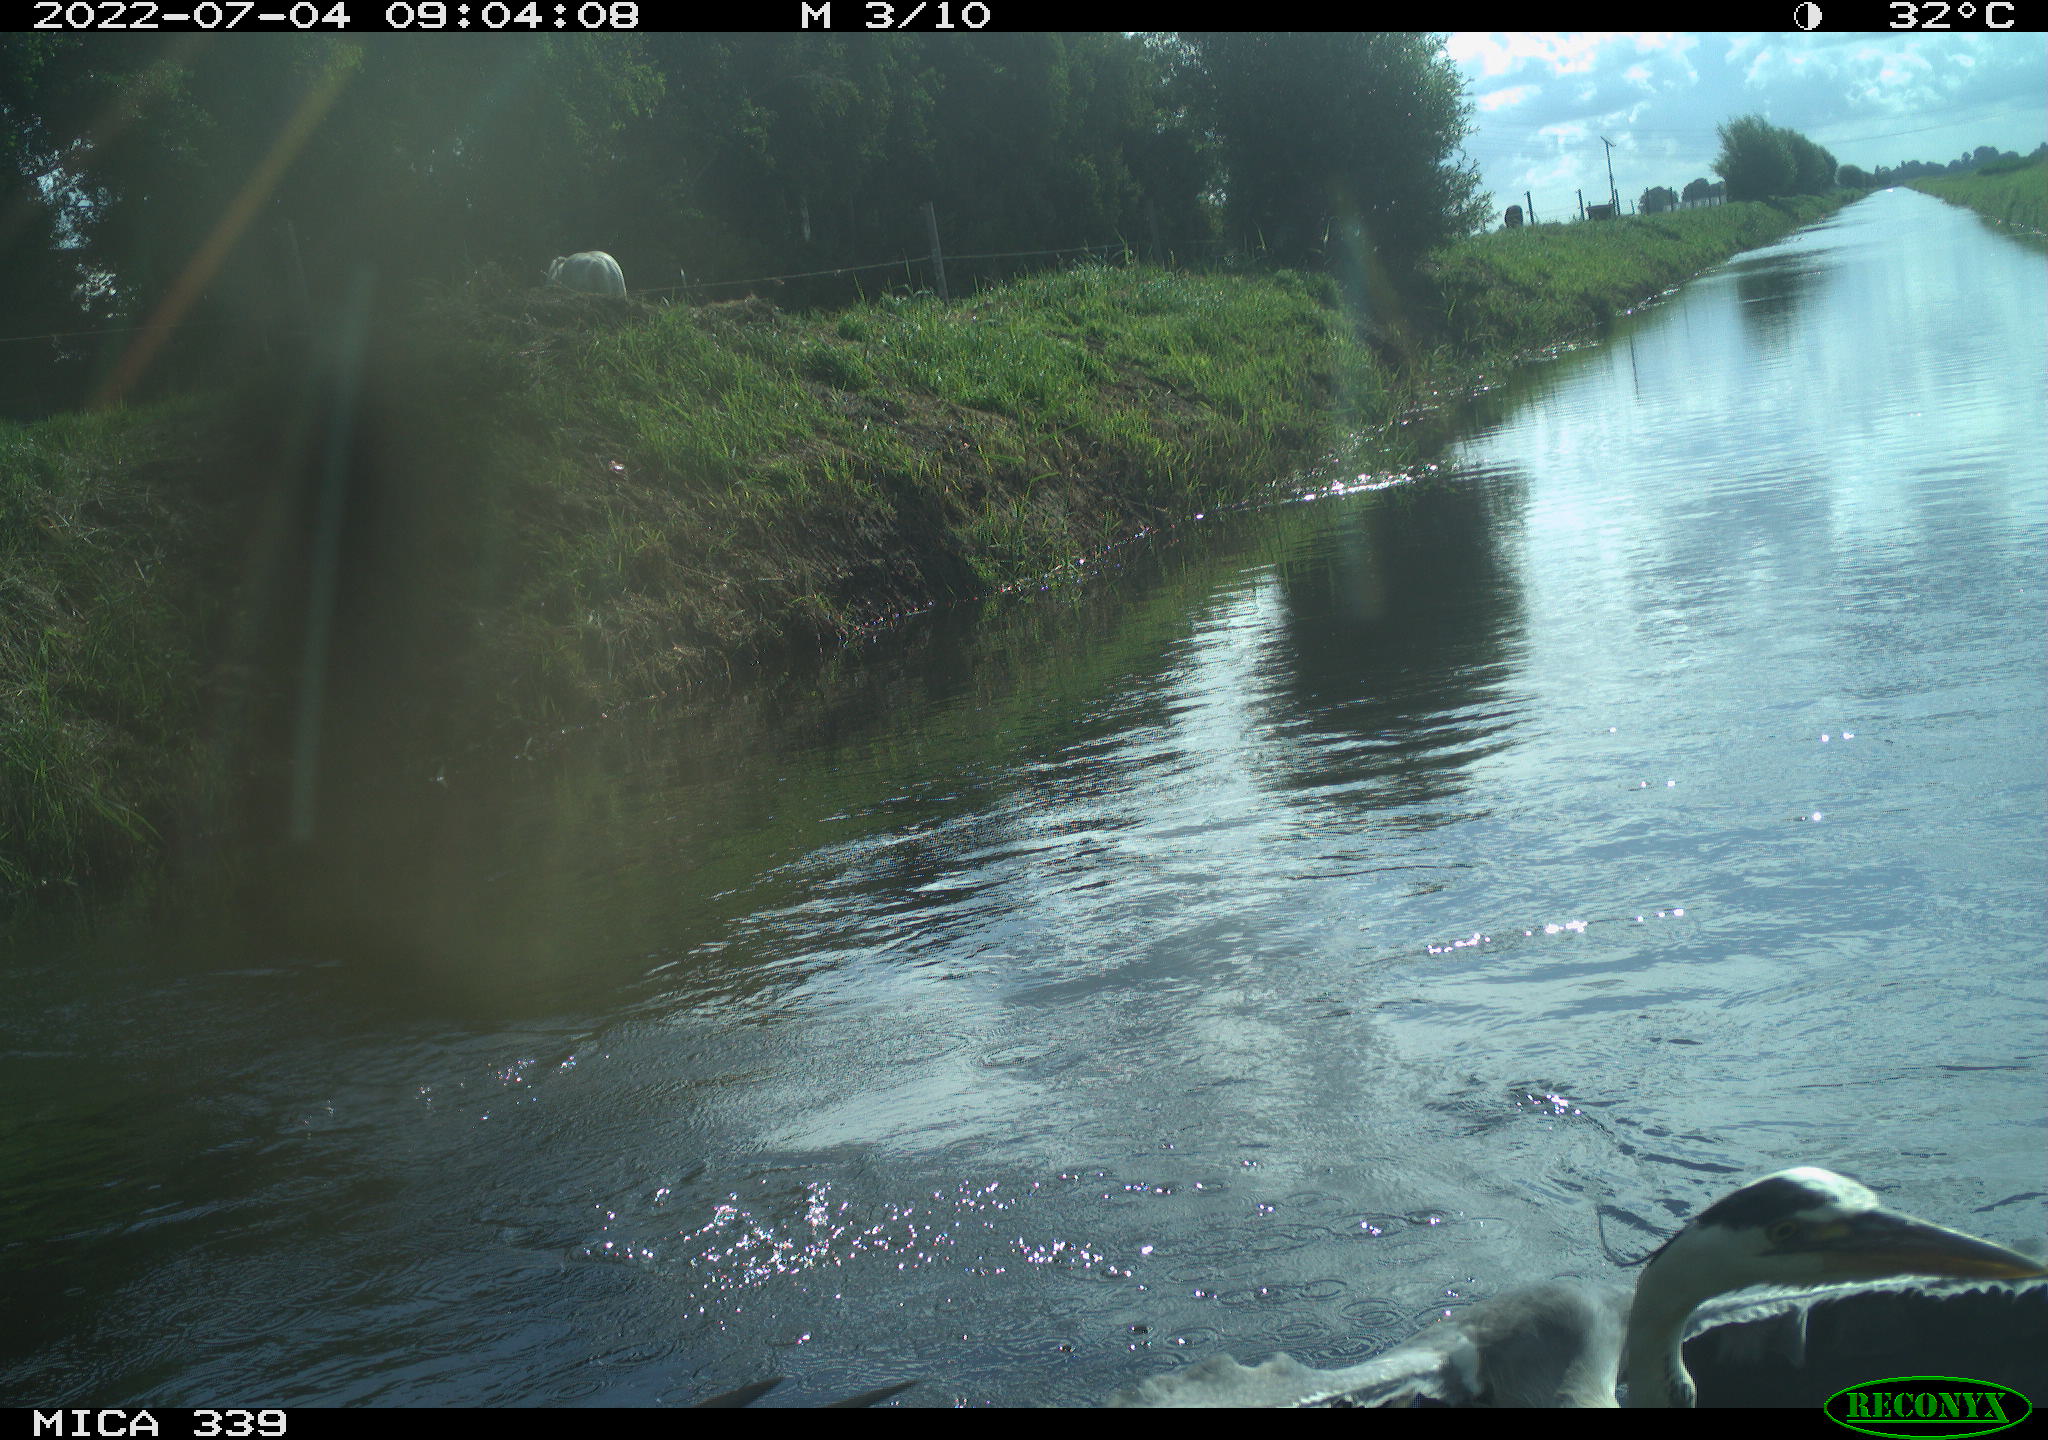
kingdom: Animalia
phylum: Chordata
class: Aves
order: Pelecaniformes
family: Ardeidae
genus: Ardea
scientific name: Ardea
